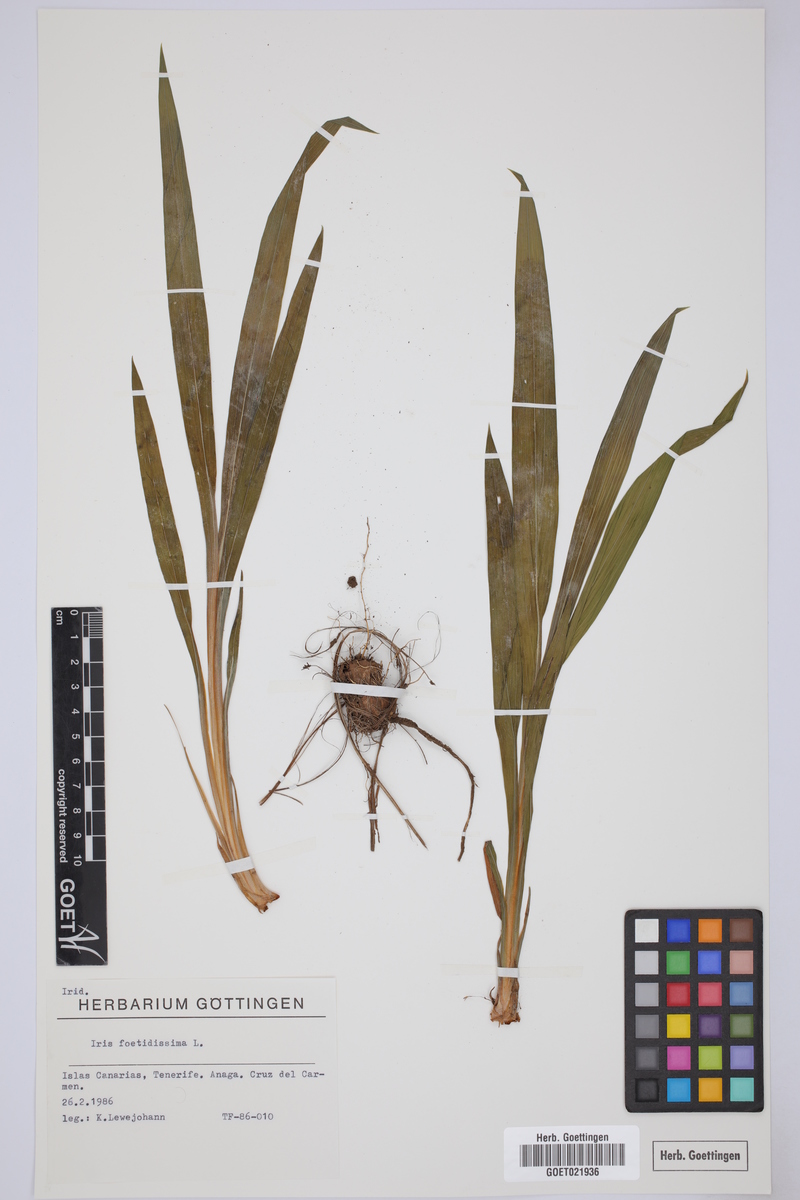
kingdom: Plantae
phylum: Tracheophyta
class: Liliopsida
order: Asparagales
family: Iridaceae
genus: Iris
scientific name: Iris foetidissima
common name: Stinking iris
